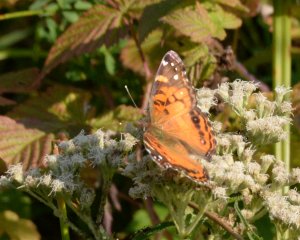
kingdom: Animalia
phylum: Arthropoda
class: Insecta
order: Lepidoptera
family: Nymphalidae
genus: Vanessa
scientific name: Vanessa virginiensis
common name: American Lady
